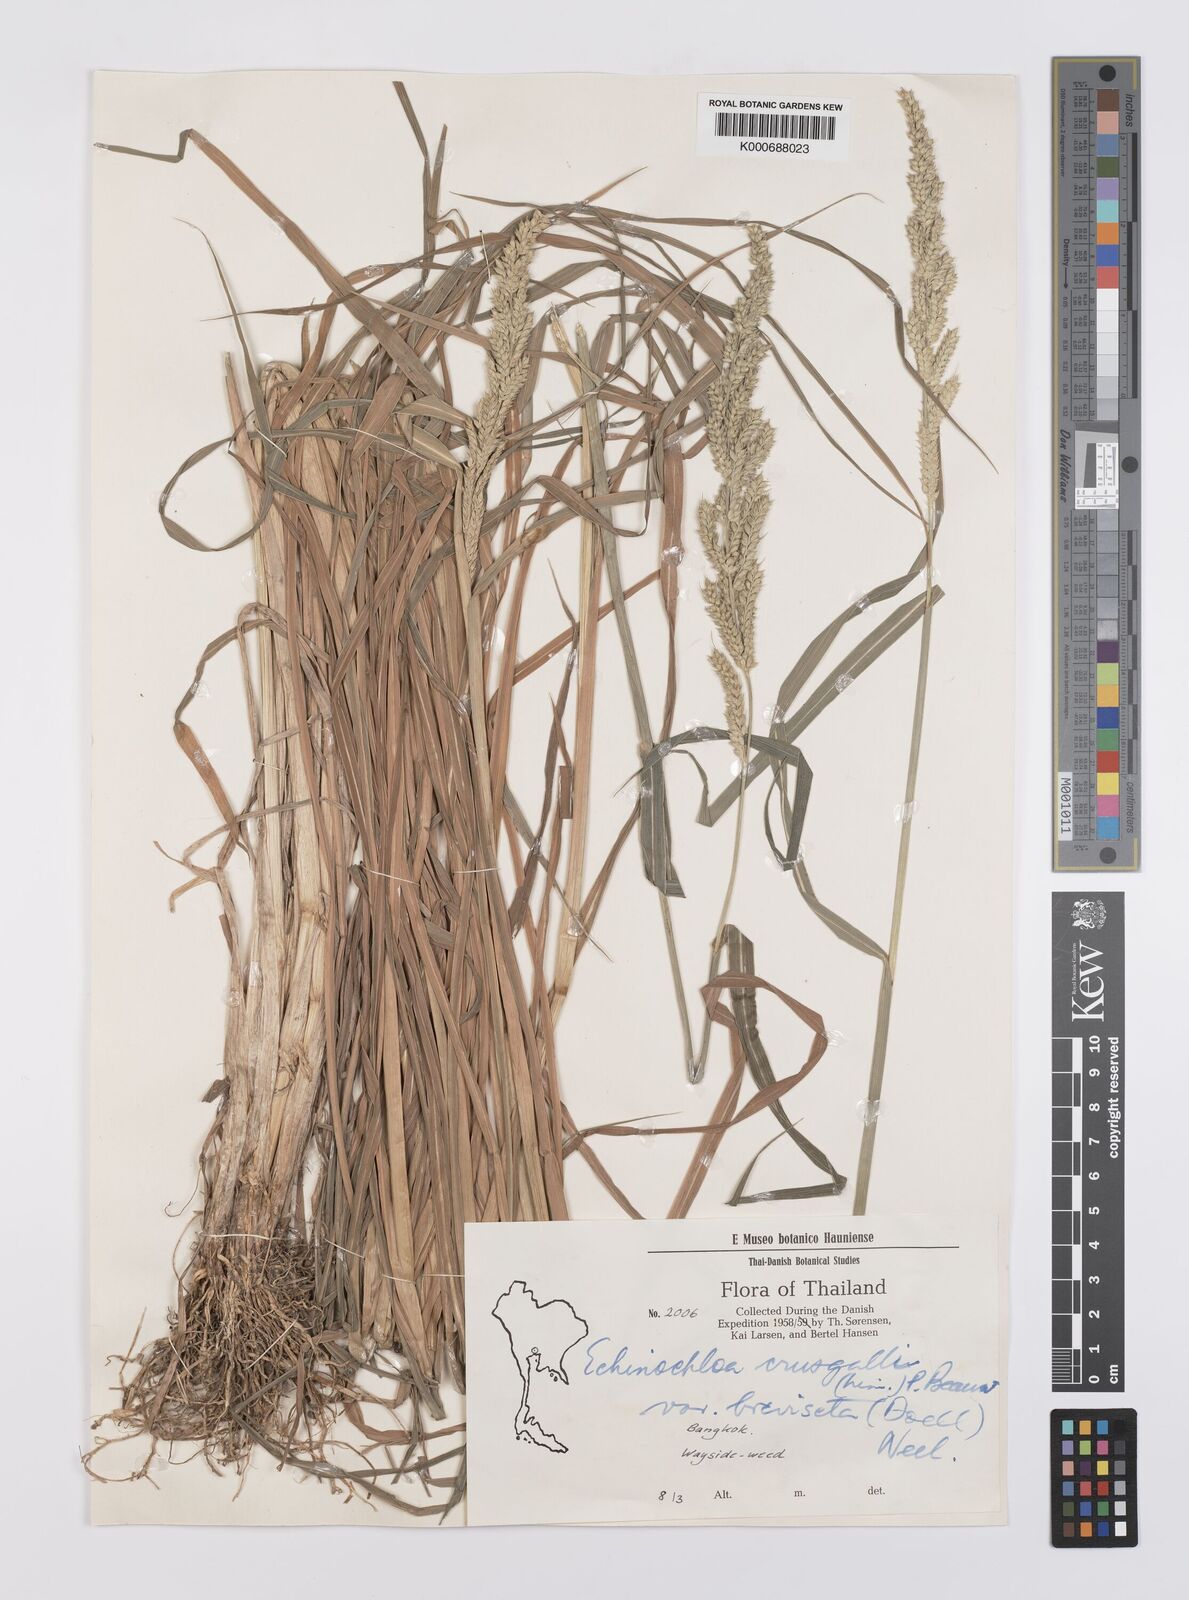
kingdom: Plantae
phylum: Tracheophyta
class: Liliopsida
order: Poales
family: Poaceae
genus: Echinochloa
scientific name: Echinochloa crus-galli
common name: Cockspur
